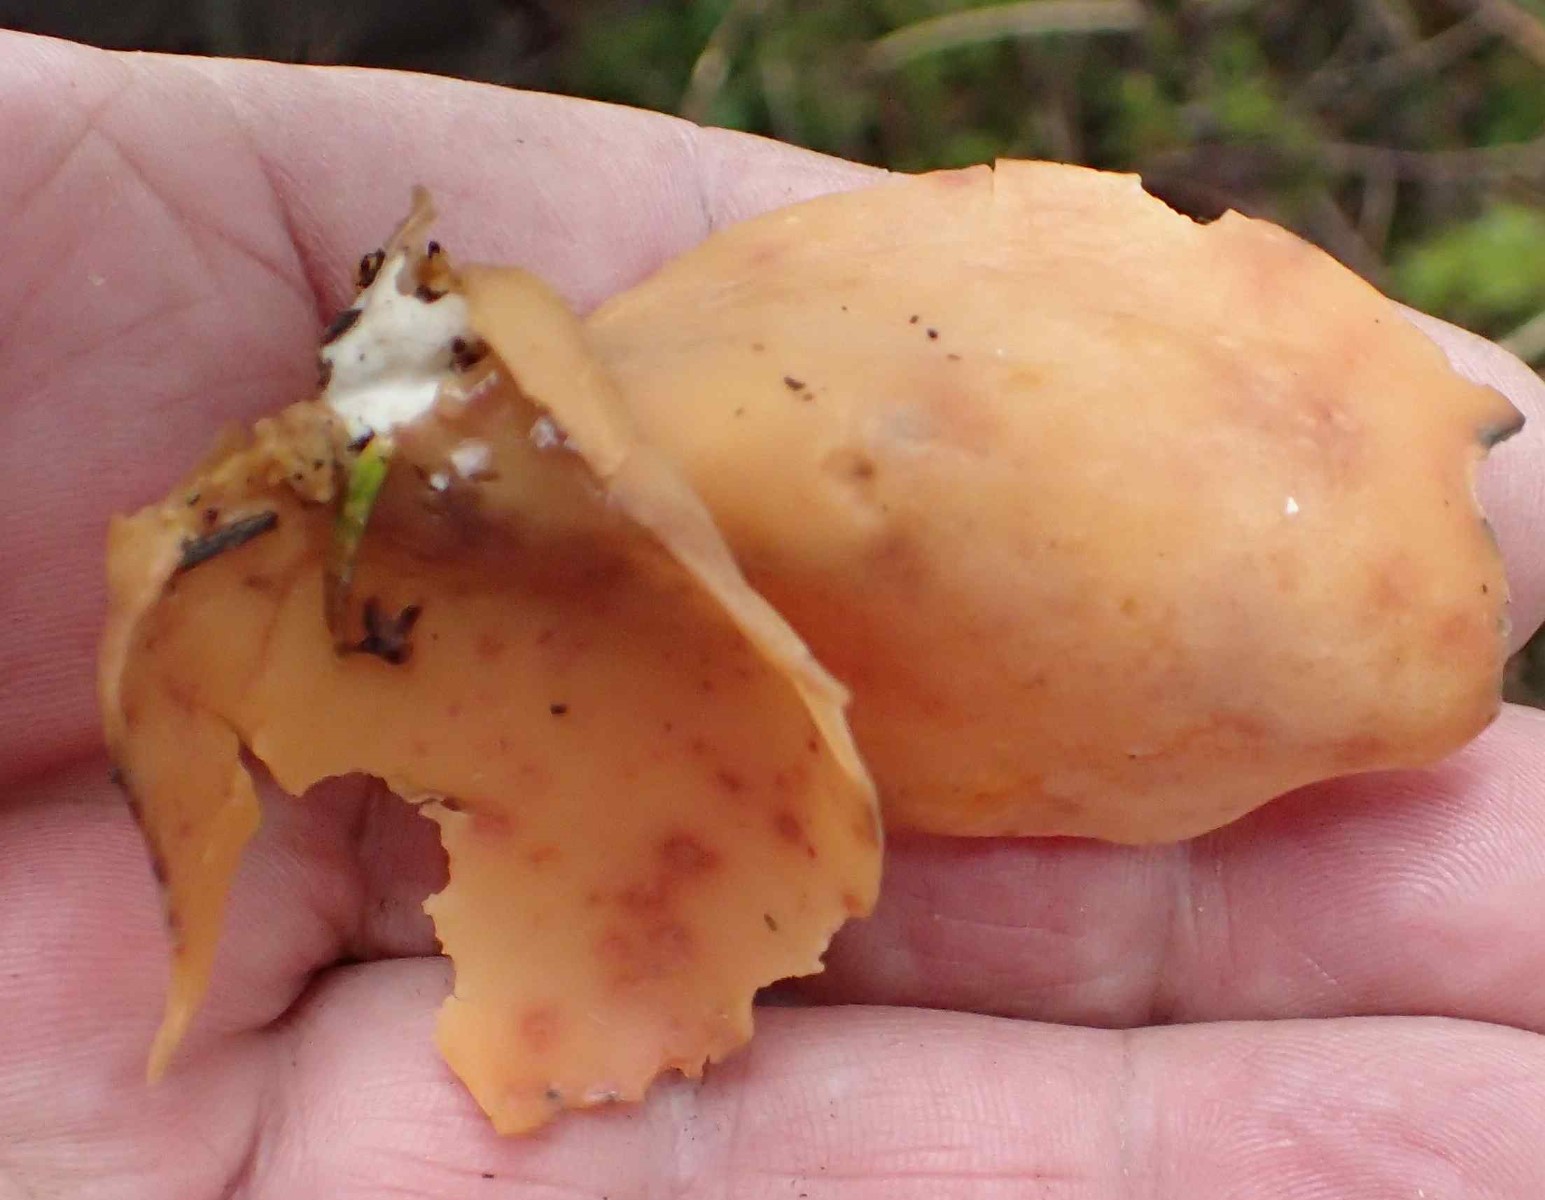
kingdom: Fungi
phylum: Ascomycota
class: Pezizomycetes
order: Pezizales
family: Otideaceae
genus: Otidea
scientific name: Otidea onotica
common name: æsel-ørebæger
